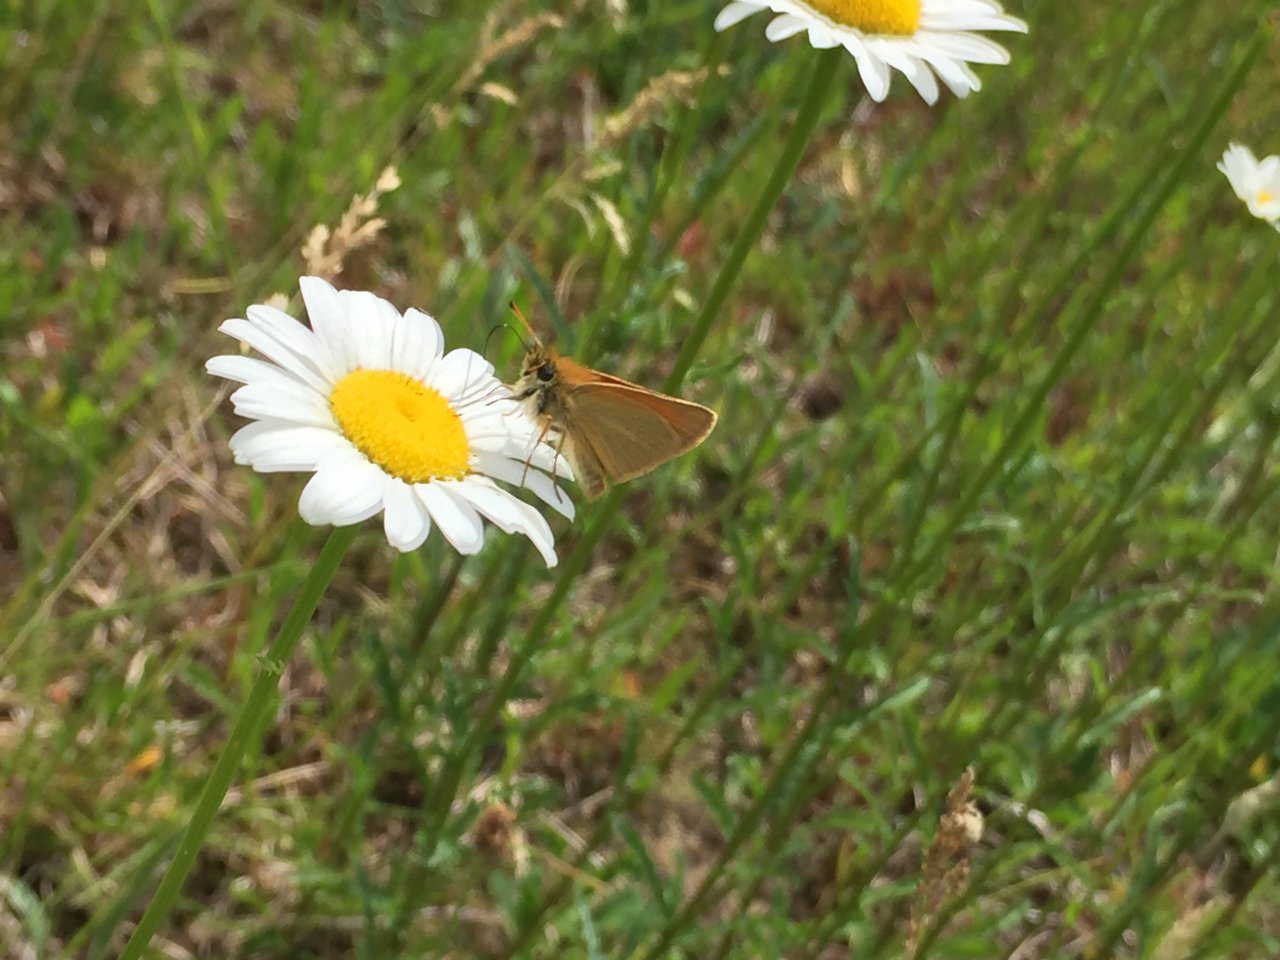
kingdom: Animalia
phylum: Arthropoda
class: Insecta
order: Lepidoptera
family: Hesperiidae
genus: Thymelicus
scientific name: Thymelicus lineola
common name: European Skipper
